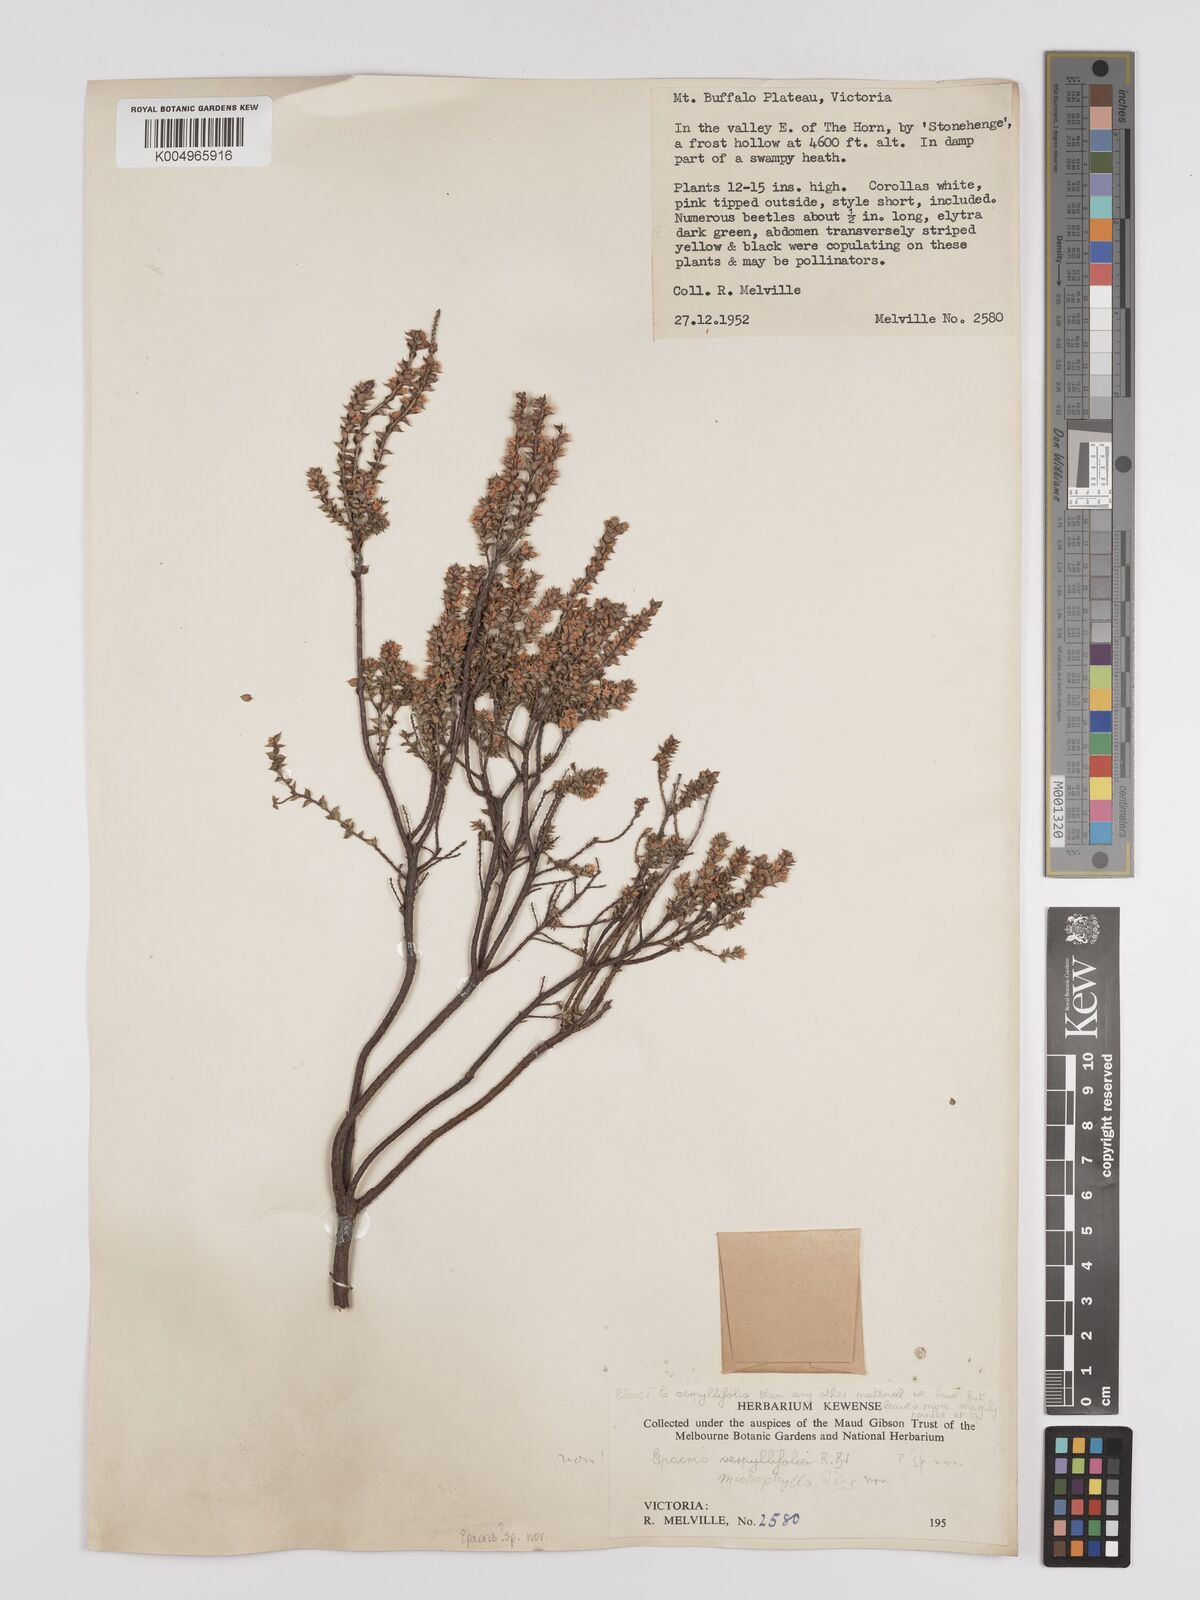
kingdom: Plantae
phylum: Tracheophyta
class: Magnoliopsida
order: Ericales
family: Ericaceae
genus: Epacris
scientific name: Epacris
